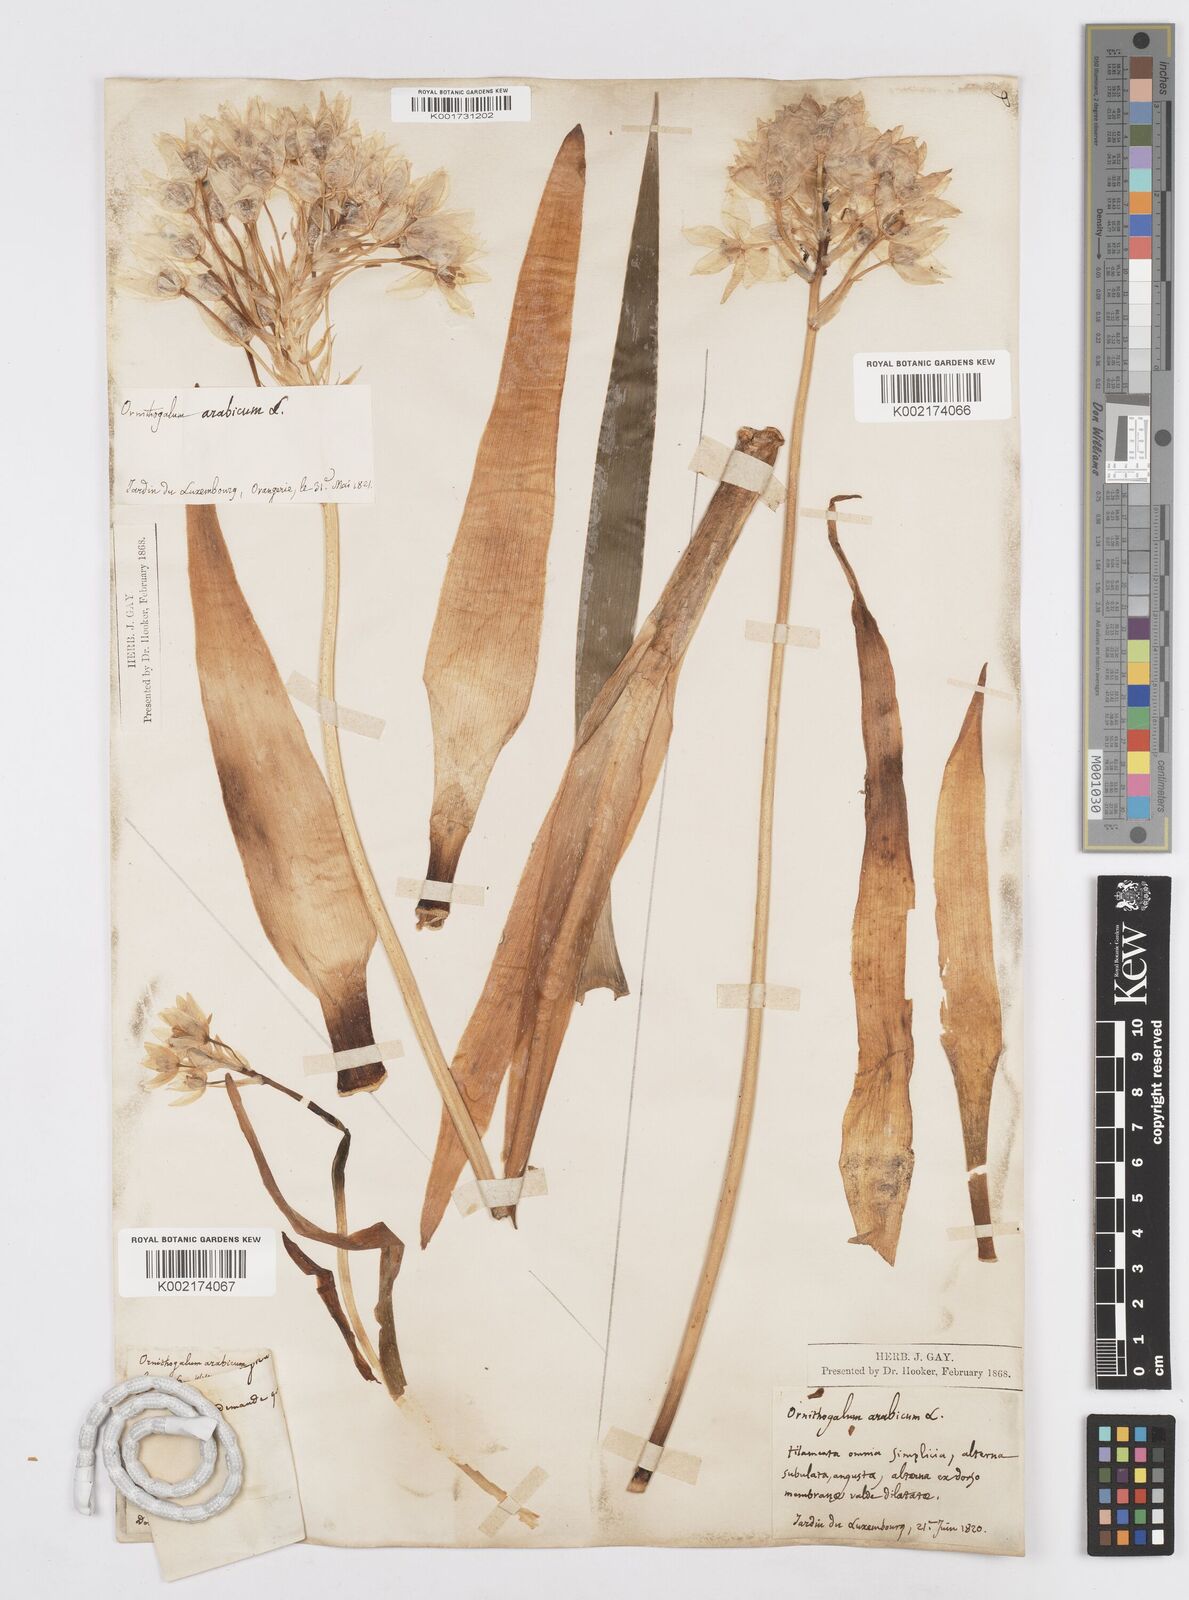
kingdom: Plantae
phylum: Tracheophyta
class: Liliopsida
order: Asparagales
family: Asparagaceae
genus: Ornithogalum
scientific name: Ornithogalum arabicum
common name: Arabian starflower
